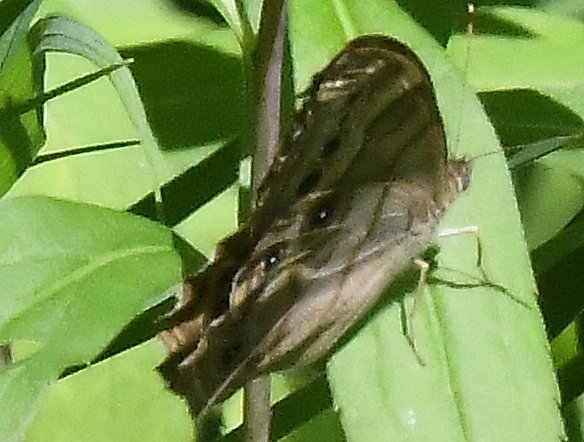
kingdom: Animalia
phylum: Arthropoda
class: Insecta
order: Lepidoptera
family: Nymphalidae
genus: Lethe
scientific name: Lethe anthedon
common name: Northern Pearly-Eye
